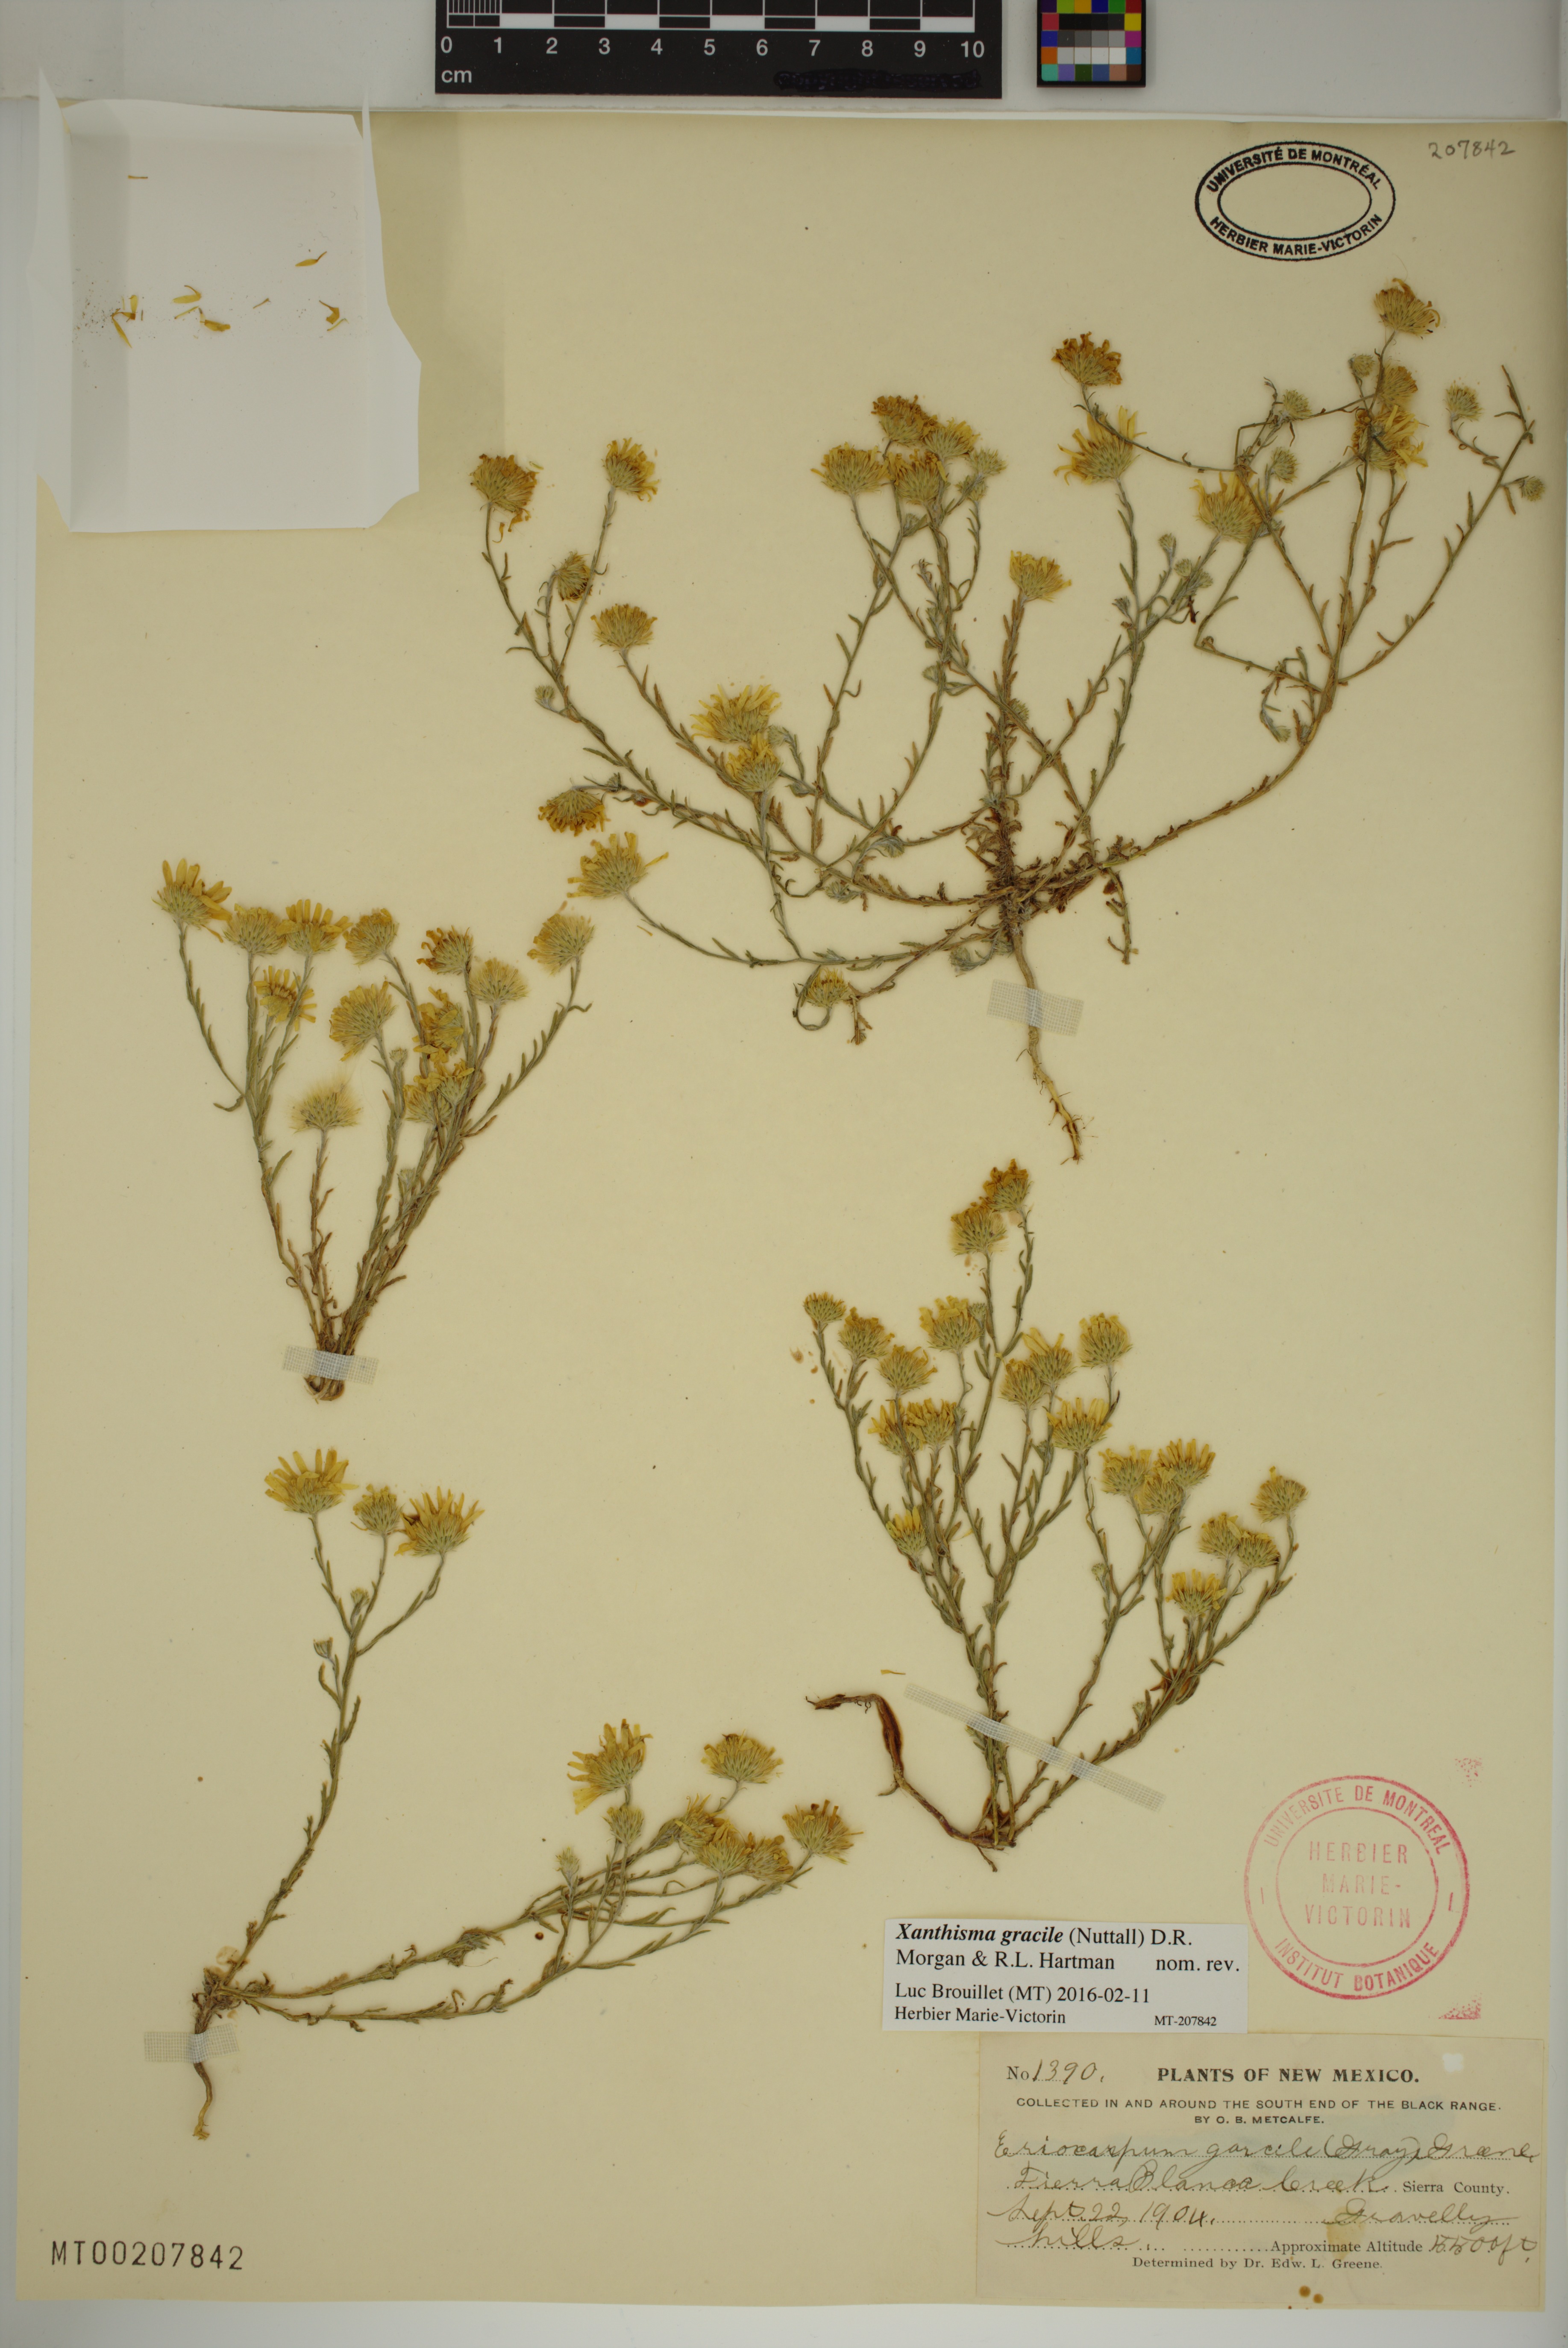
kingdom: Plantae
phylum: Tracheophyta
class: Magnoliopsida
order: Asterales
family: Asteraceae
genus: Xanthisma
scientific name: Xanthisma gracile
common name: Slender goldenweed
